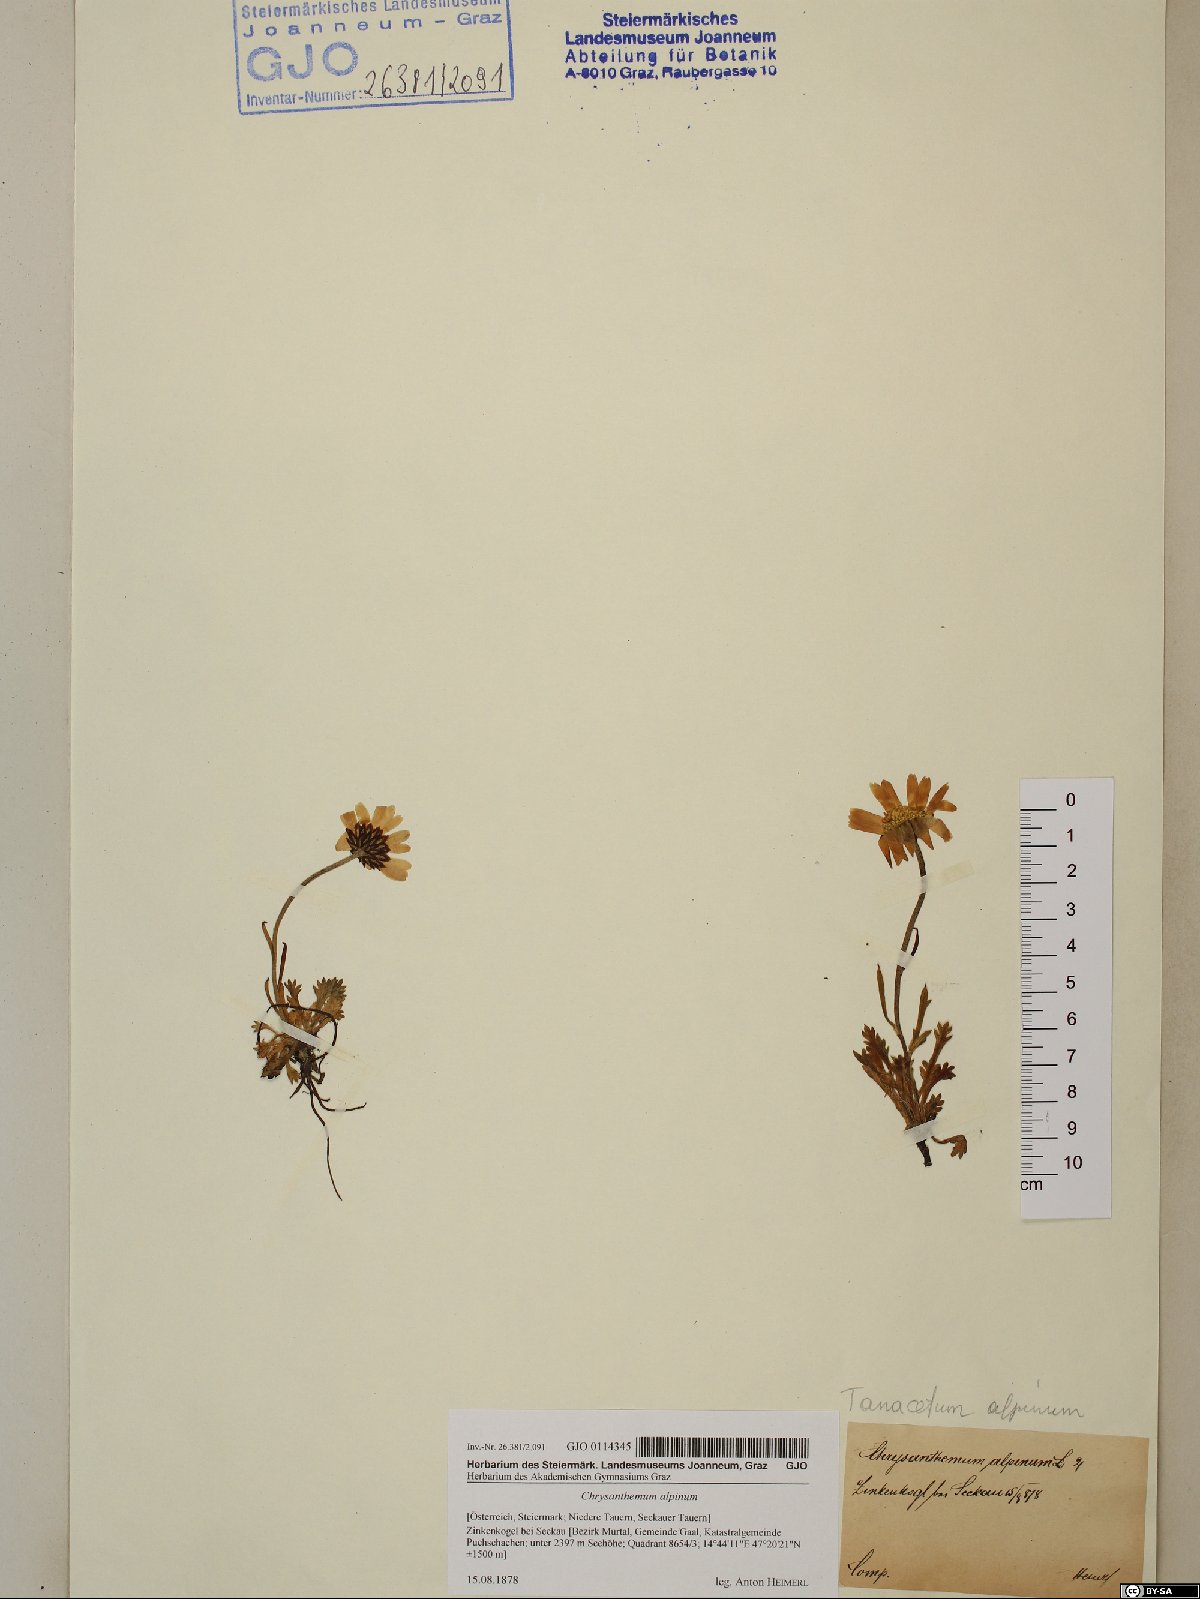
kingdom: Plantae
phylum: Tracheophyta
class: Magnoliopsida
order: Asterales
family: Asteraceae
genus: Leucanthemopsis
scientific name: Leucanthemopsis alpina
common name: Alpine moon daisy
